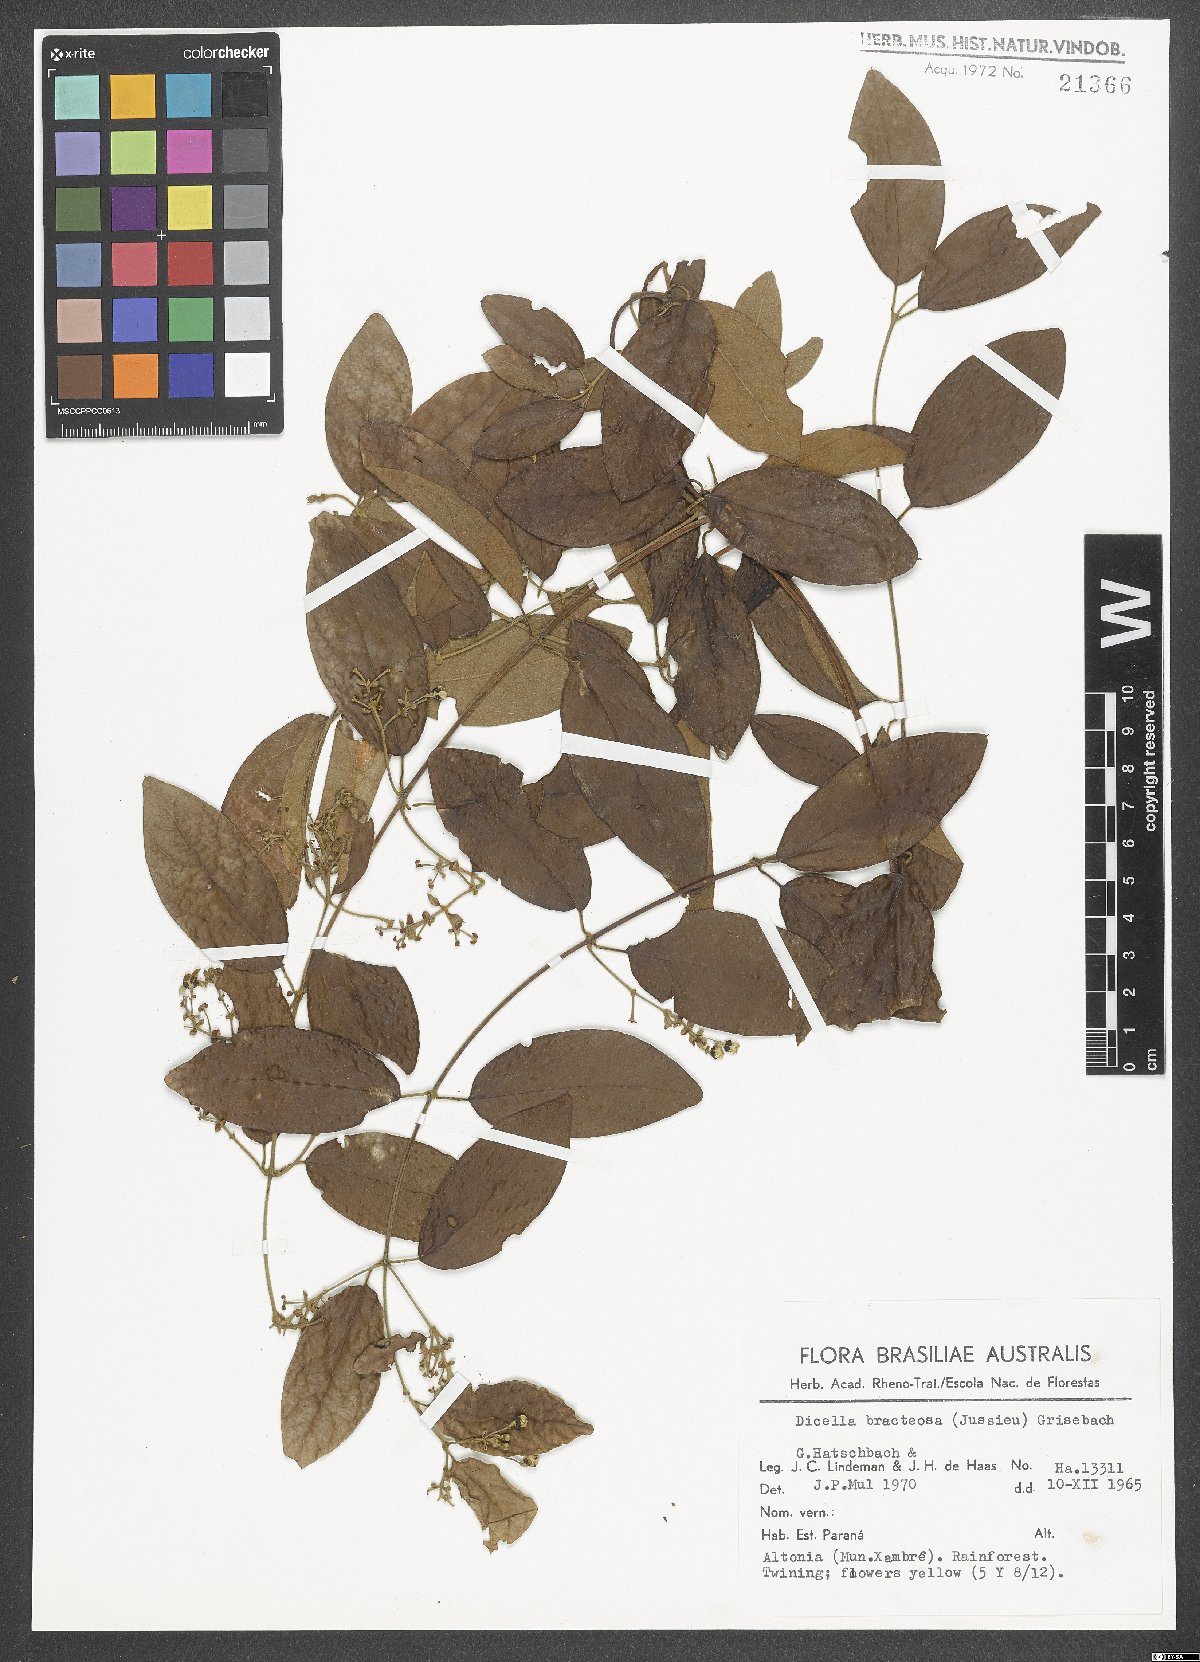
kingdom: Plantae
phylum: Tracheophyta
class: Magnoliopsida
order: Malpighiales
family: Malpighiaceae
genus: Dicella
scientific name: Dicella bracteosa
